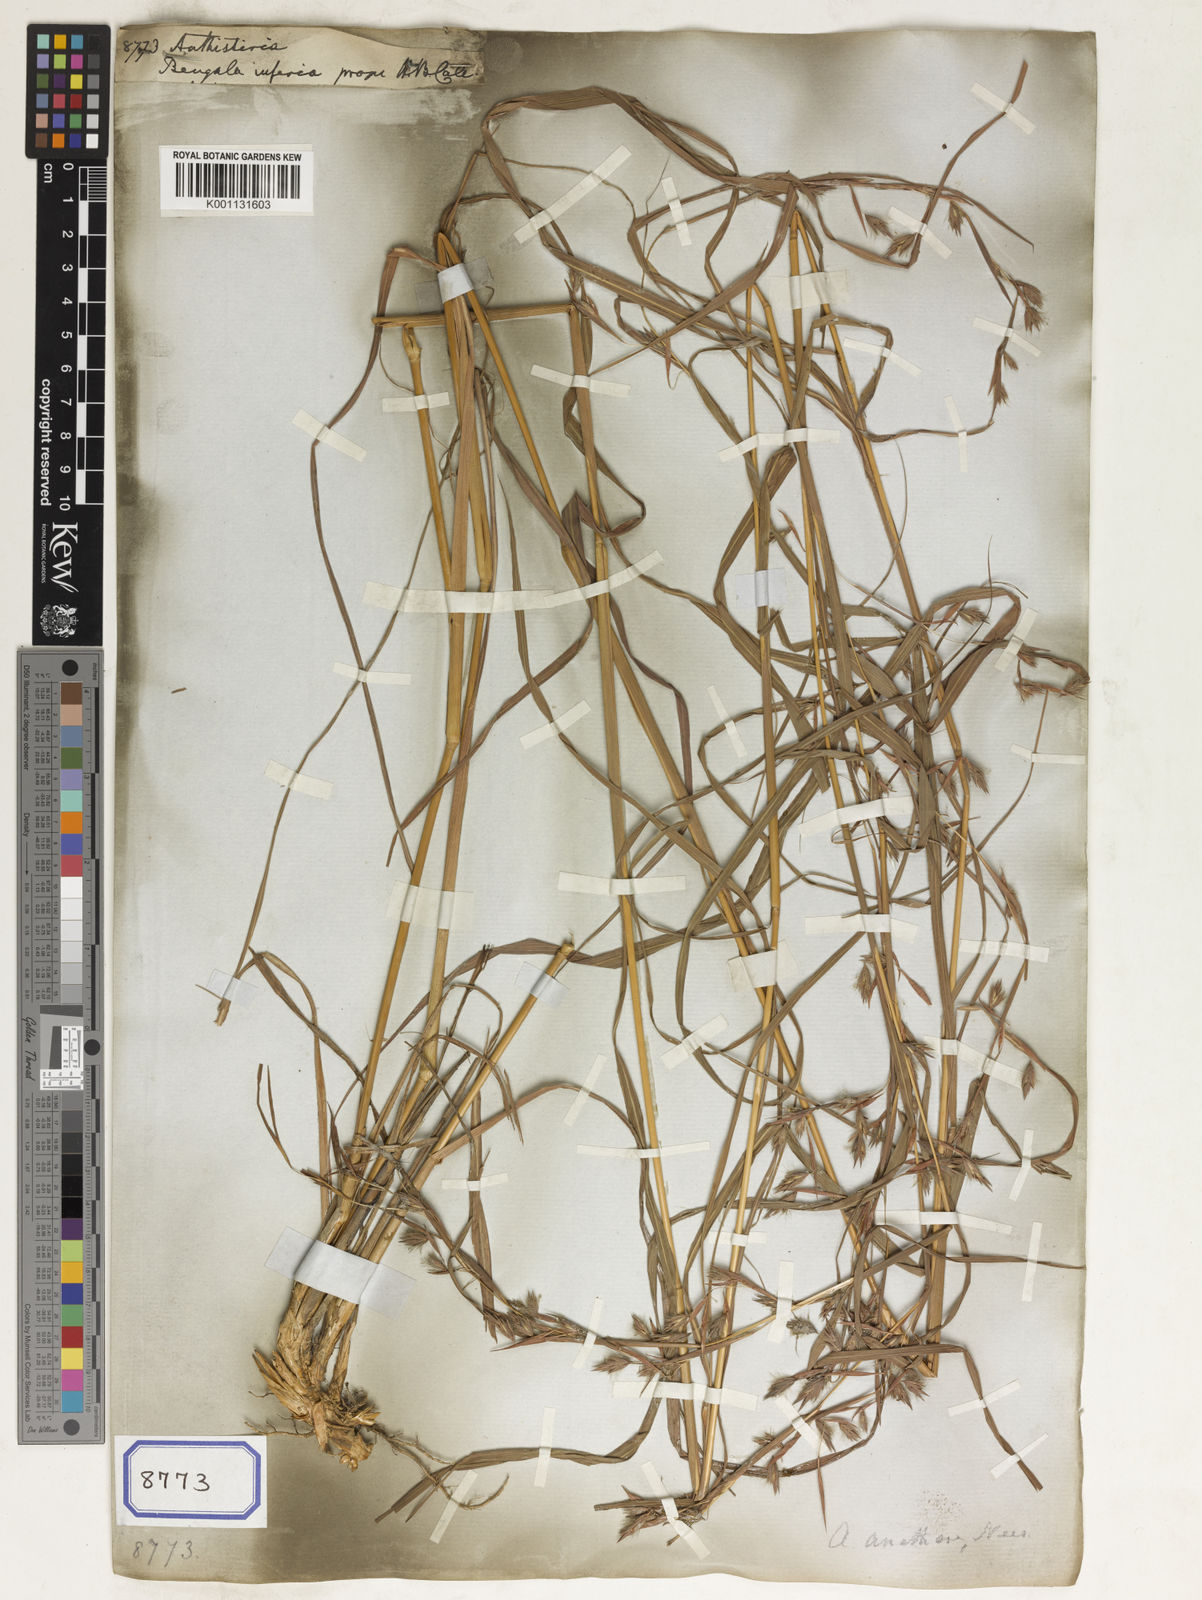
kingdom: Plantae
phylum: Tracheophyta
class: Liliopsida
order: Poales
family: Poaceae
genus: Themeda
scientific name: Themeda
